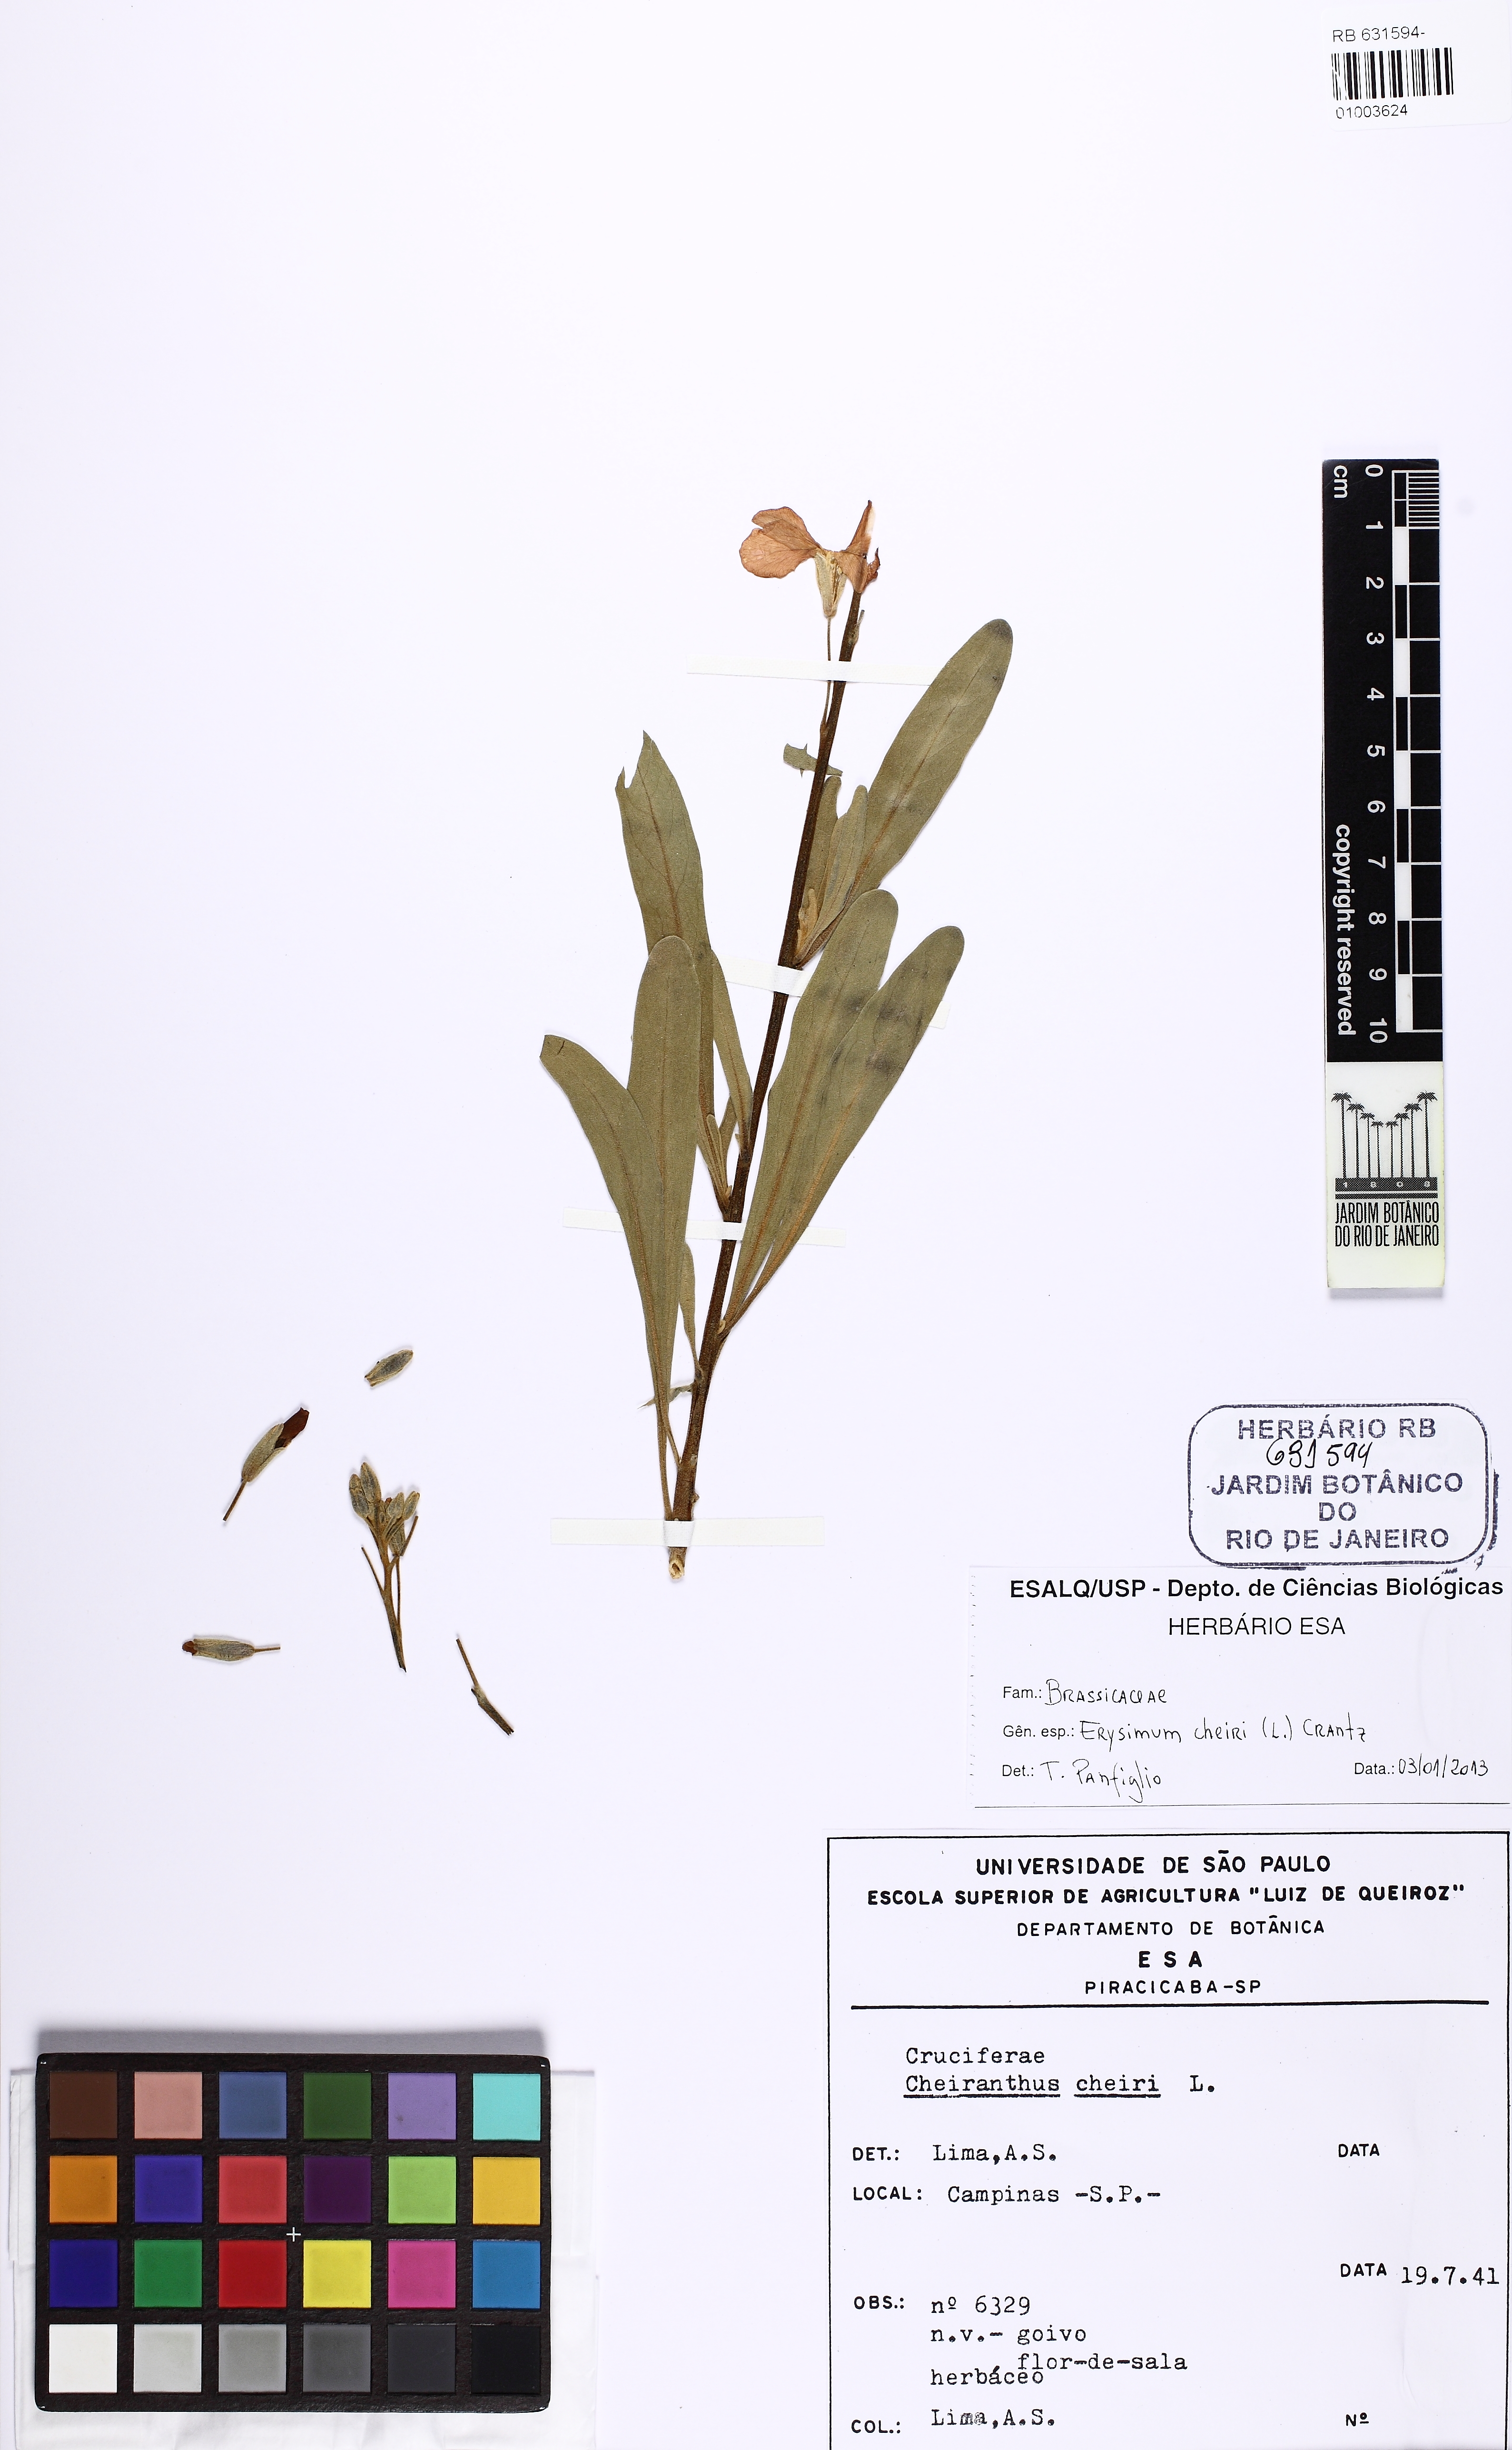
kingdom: Plantae
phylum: Tracheophyta
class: Magnoliopsida
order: Brassicales
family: Brassicaceae
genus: Erysimum
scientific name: Erysimum cheiri
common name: Wallflower
